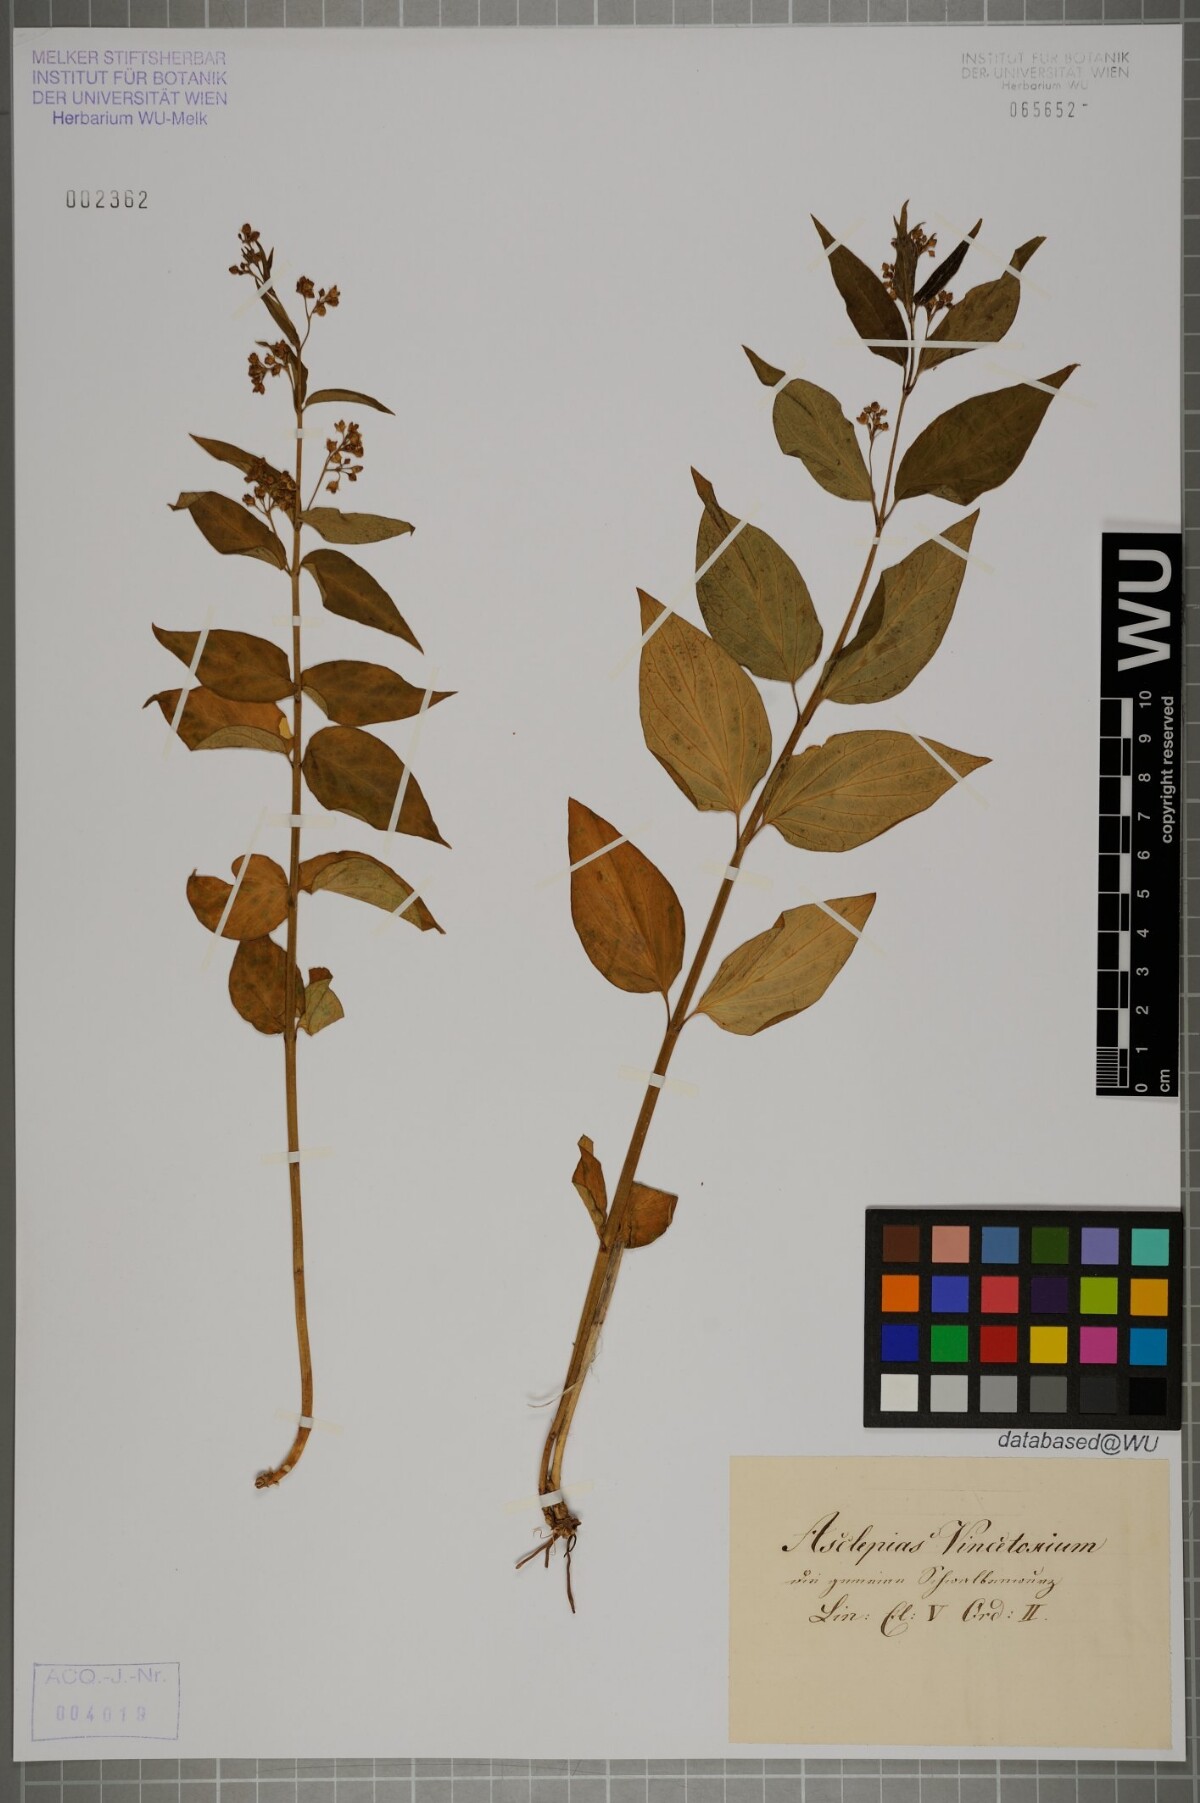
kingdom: Plantae
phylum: Tracheophyta
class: Magnoliopsida
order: Gentianales
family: Apocynaceae
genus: Vincetoxicum
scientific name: Vincetoxicum hirundinaria
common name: White swallowwort
